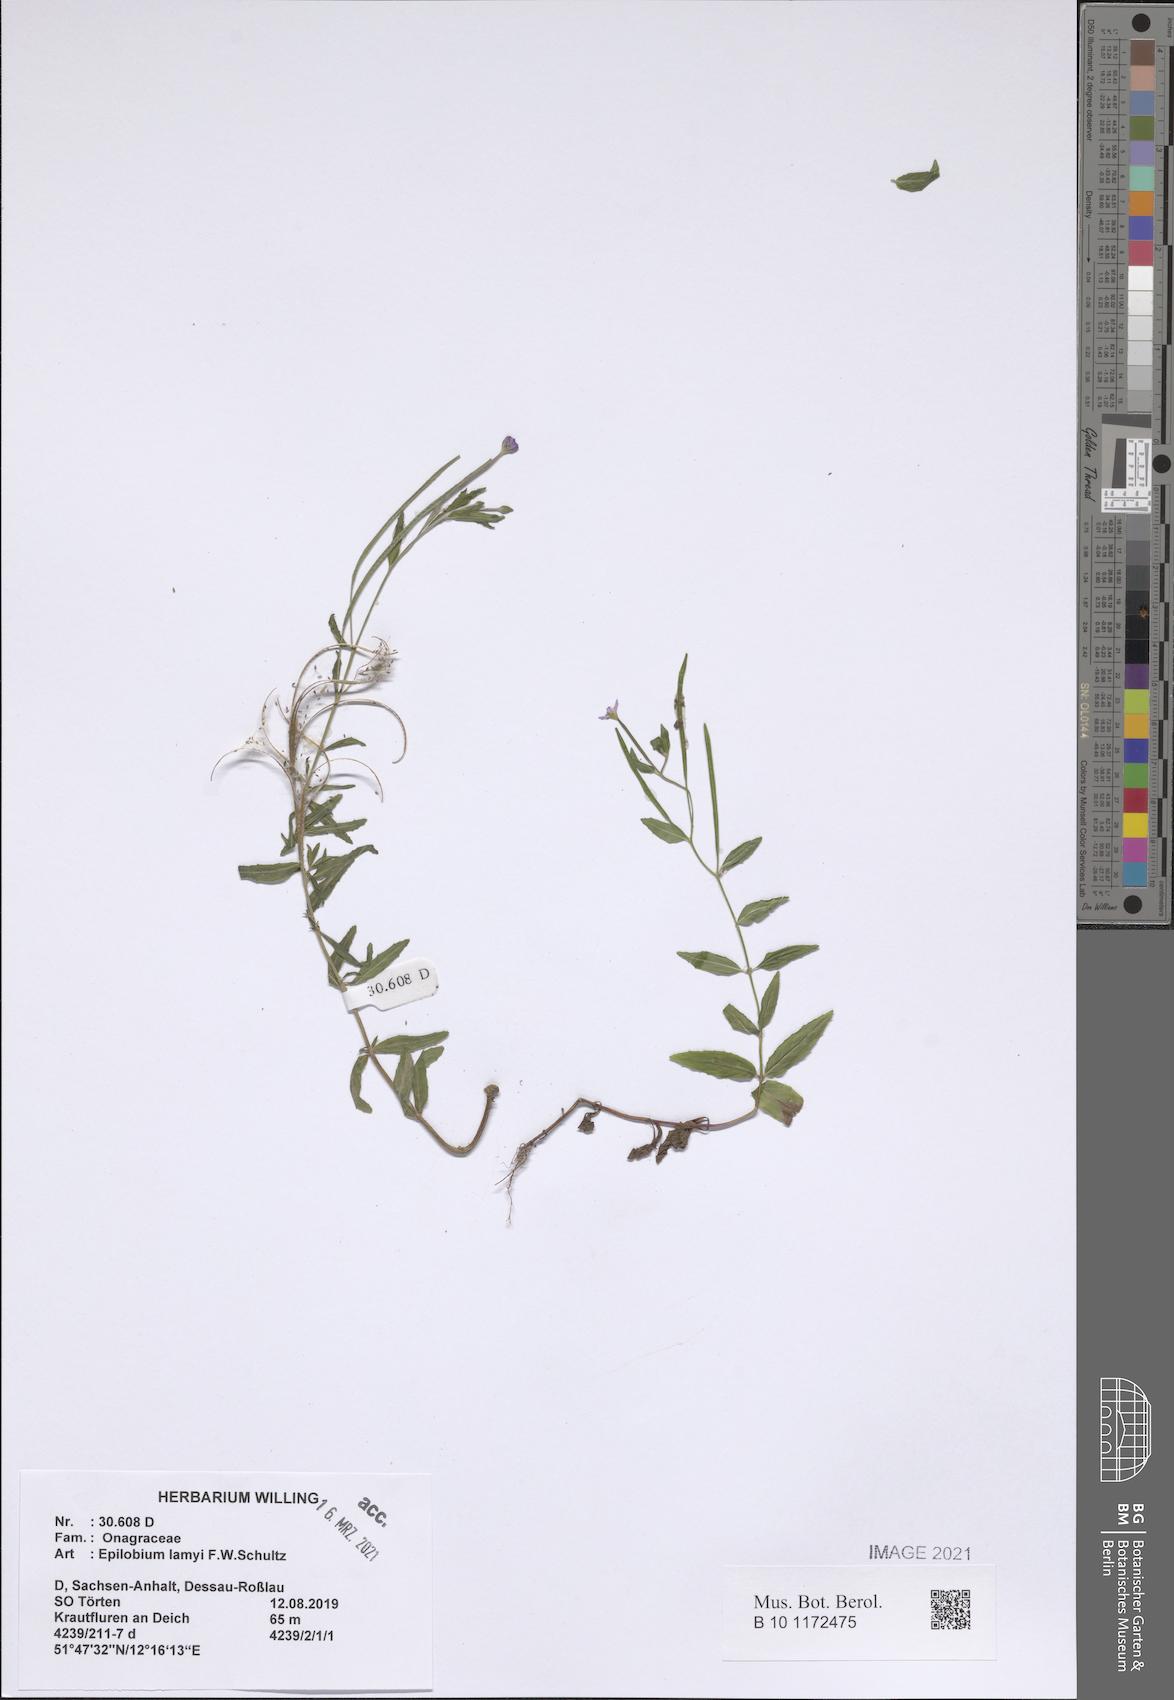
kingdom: Plantae
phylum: Tracheophyta
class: Magnoliopsida
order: Myrtales
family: Onagraceae
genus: Epilobium
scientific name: Epilobium lamyi
